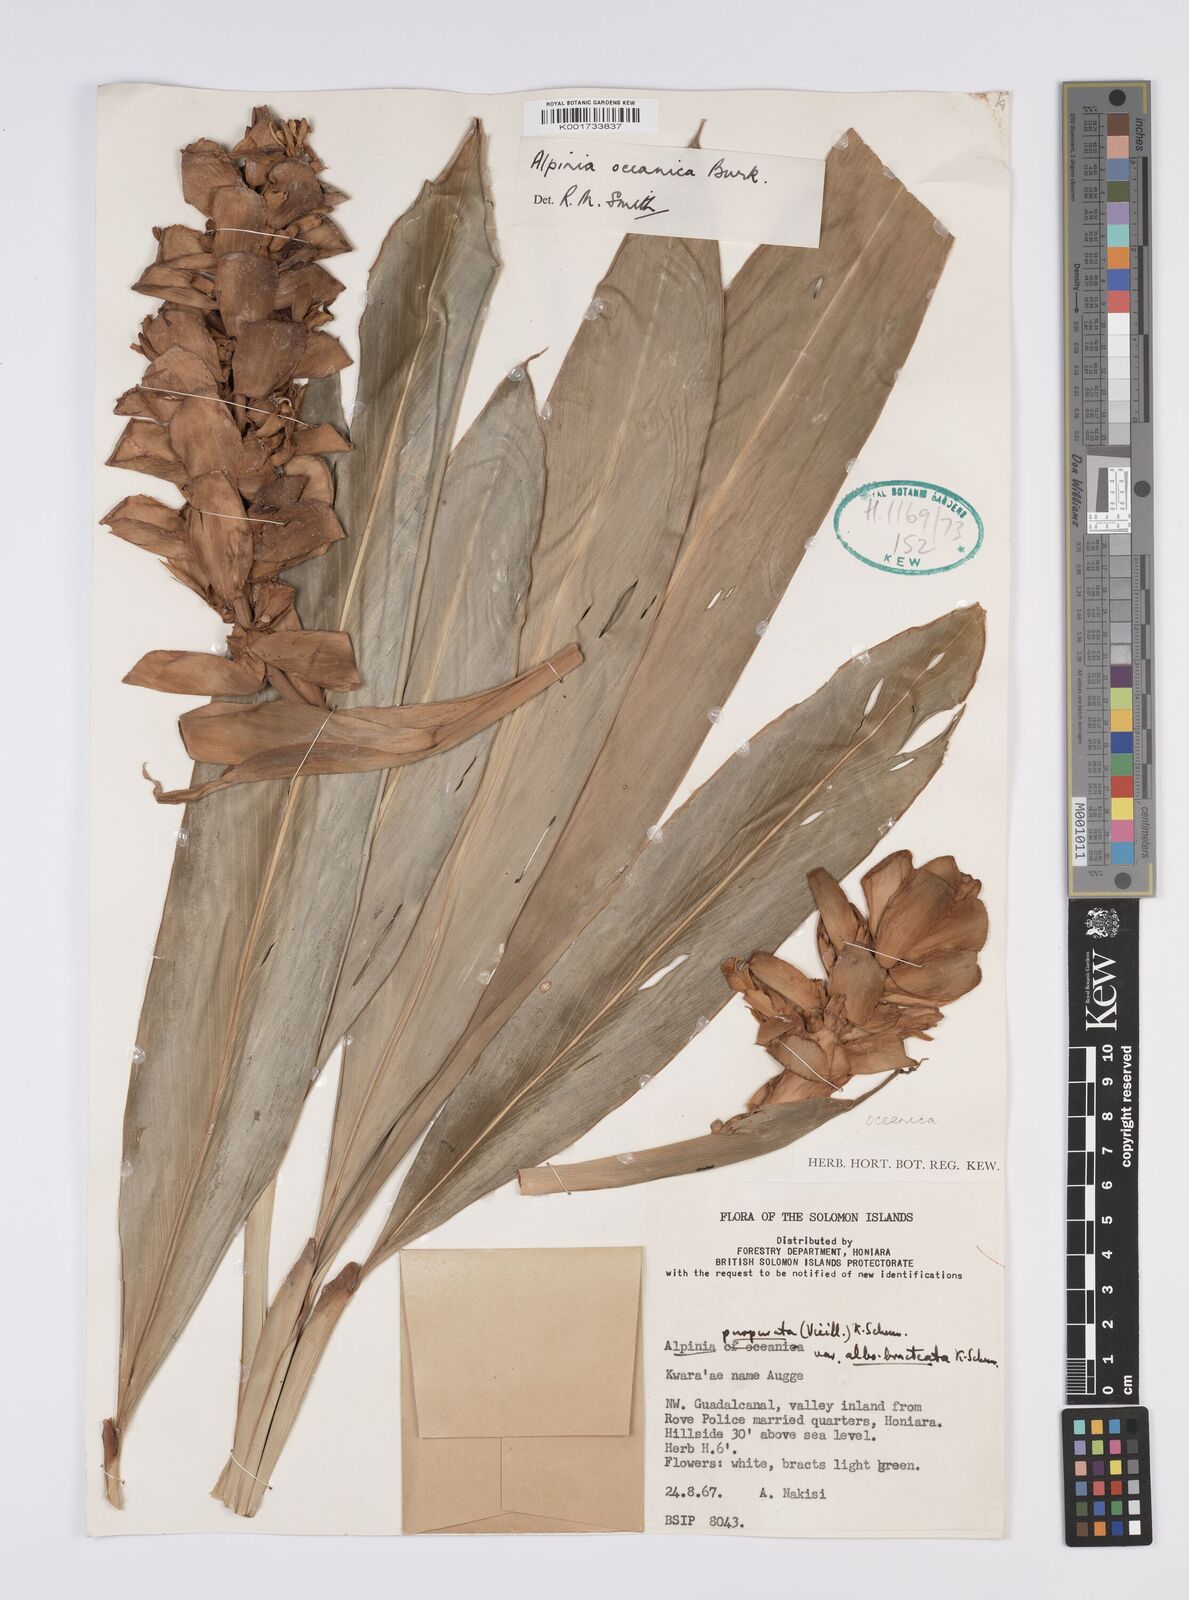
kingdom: Plantae
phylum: Tracheophyta
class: Liliopsida
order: Zingiberales
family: Zingiberaceae
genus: Alpinia
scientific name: Alpinia oceanica
